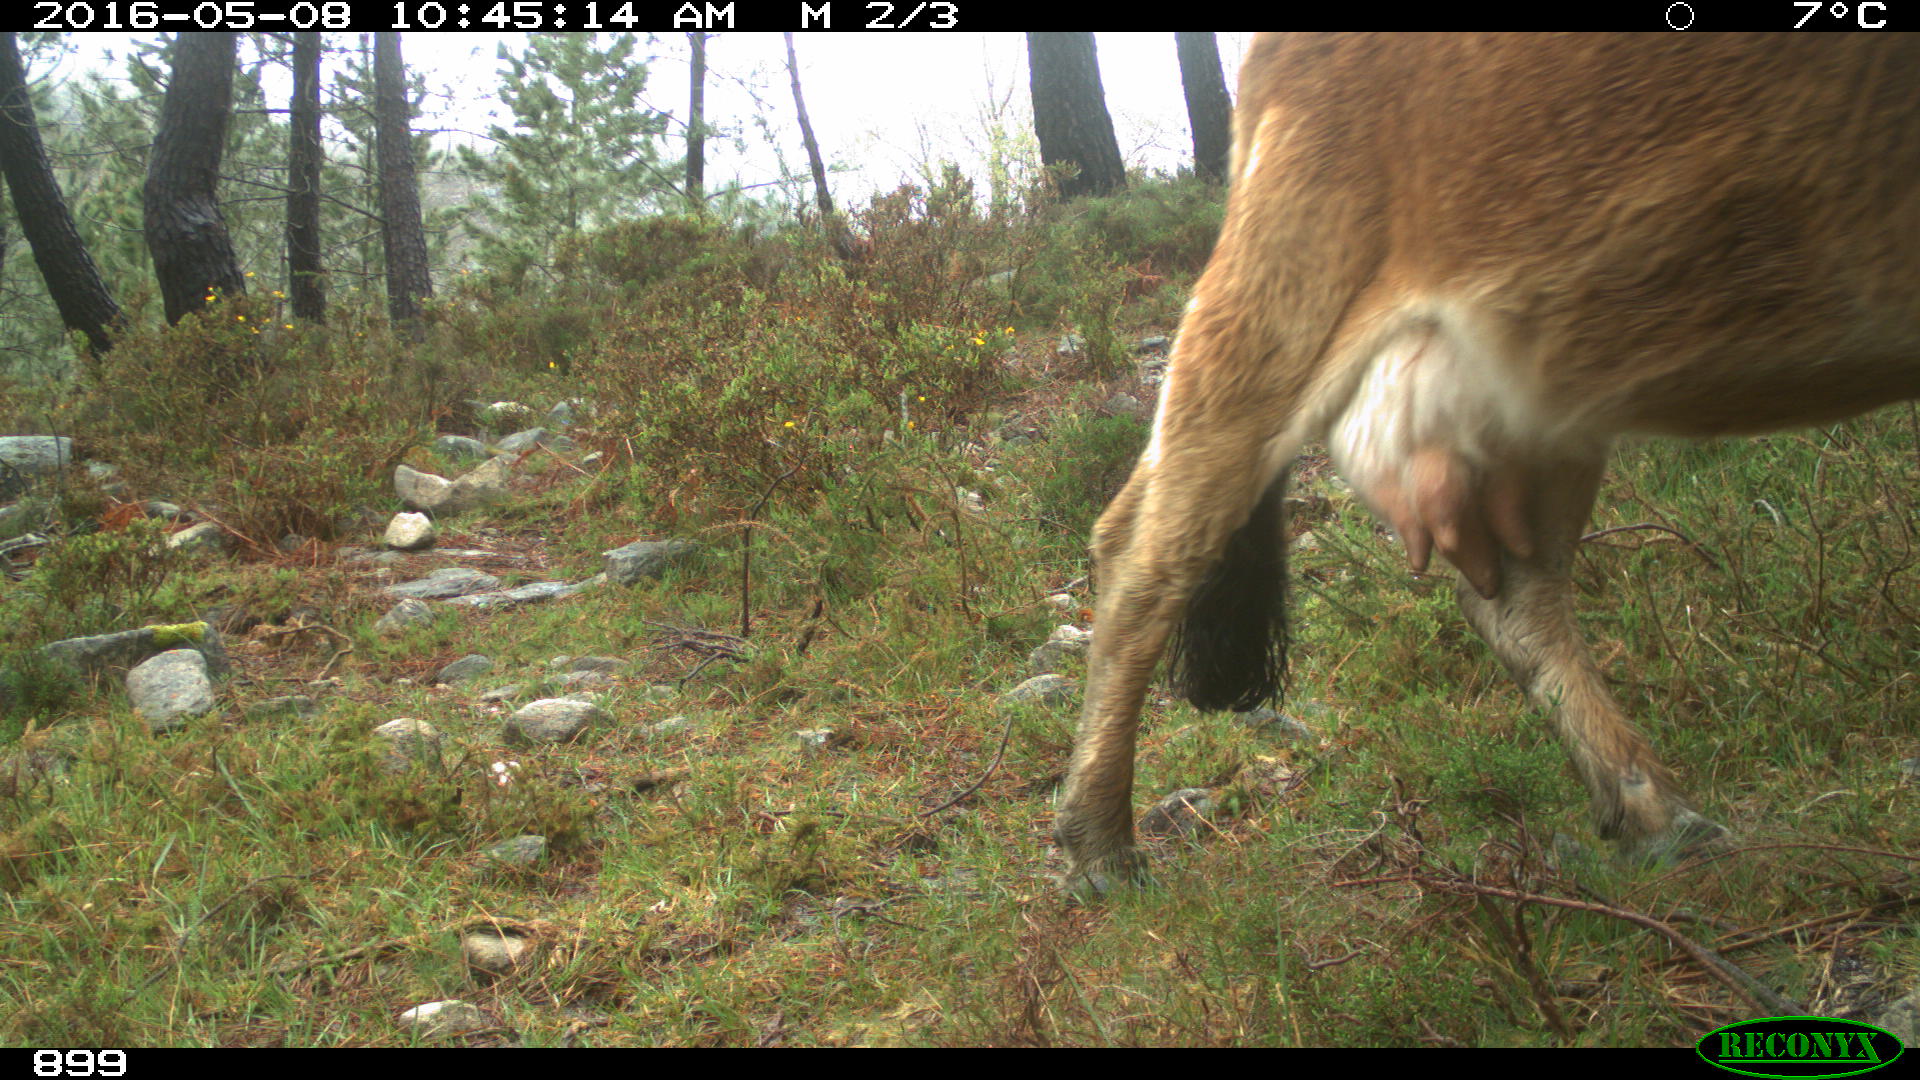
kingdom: Animalia
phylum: Chordata
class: Mammalia
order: Artiodactyla
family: Bovidae
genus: Bos
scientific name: Bos taurus
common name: Domesticated cattle
